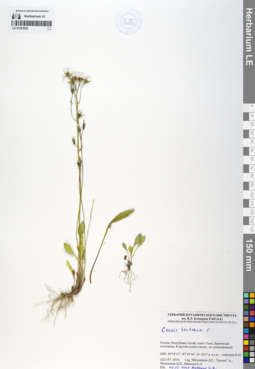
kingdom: Plantae
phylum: Tracheophyta
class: Magnoliopsida
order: Asterales
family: Asteraceae
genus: Crepis
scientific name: Crepis tectorum
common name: Narrow-leaved hawk's-beard
